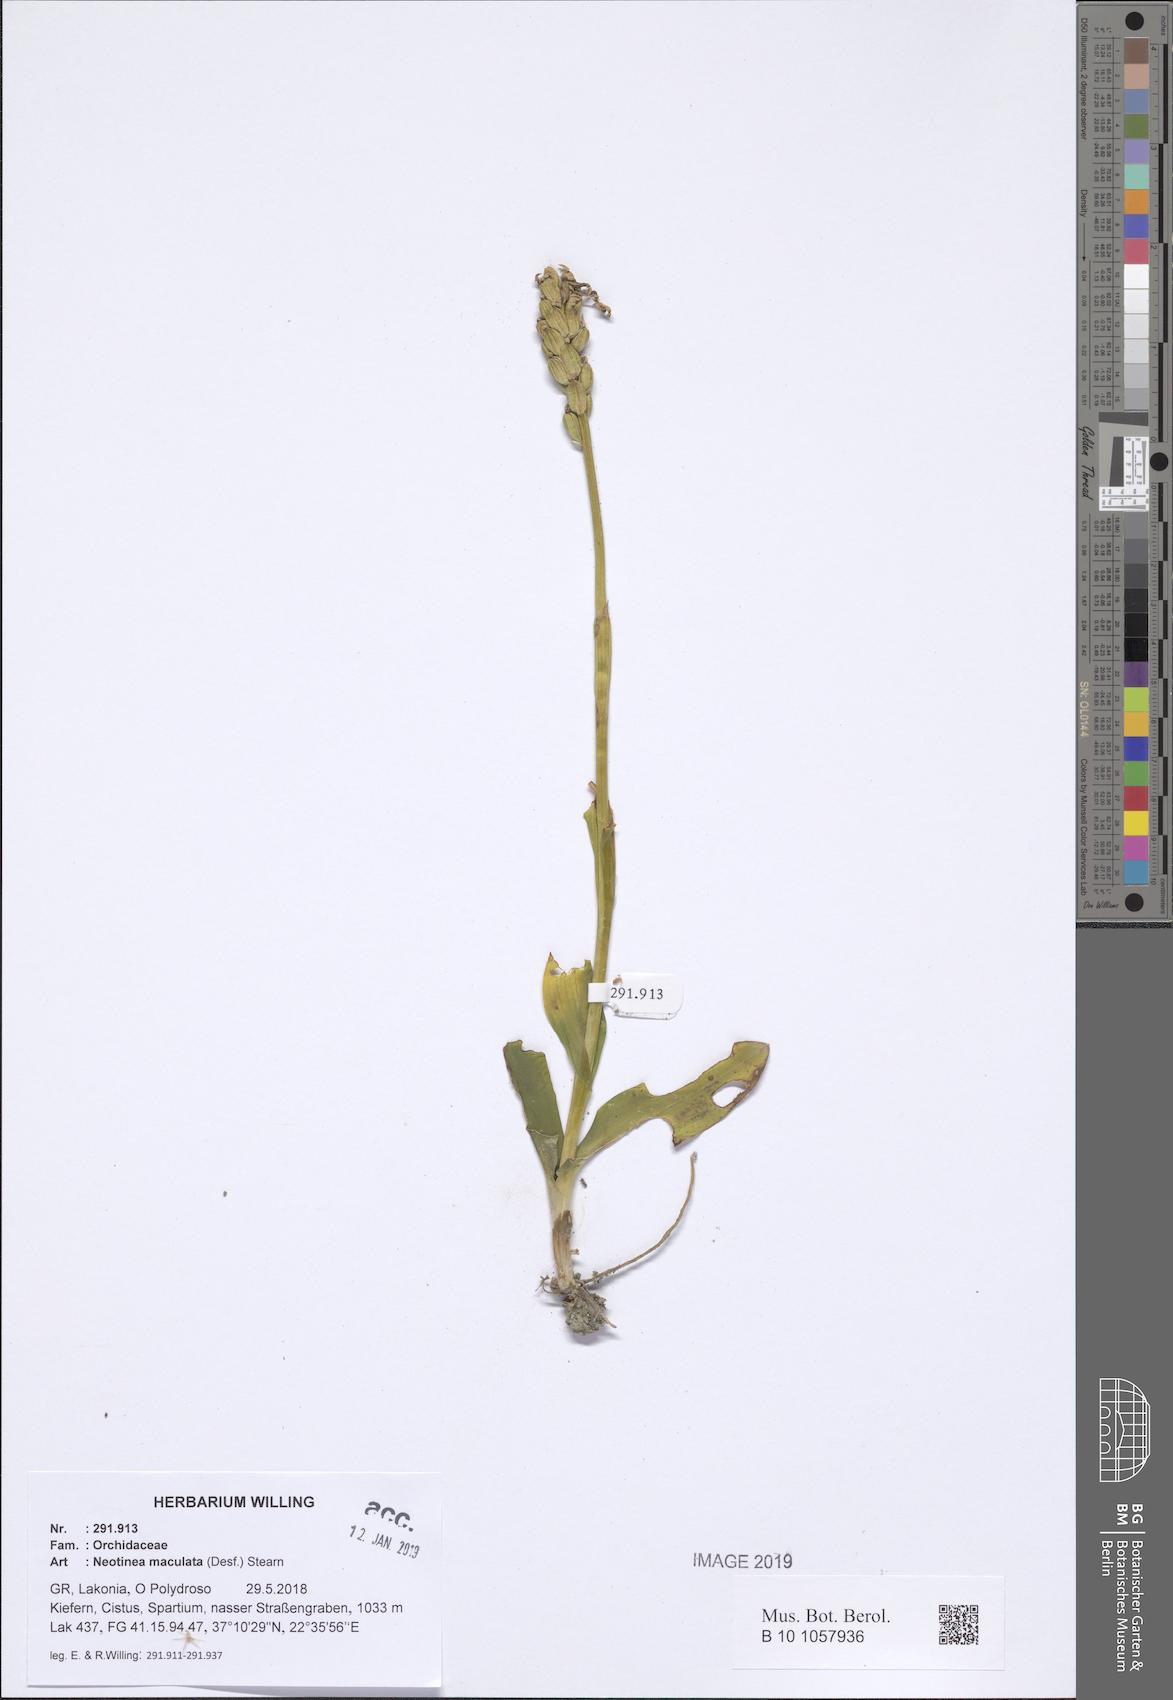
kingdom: Plantae
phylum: Tracheophyta
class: Liliopsida
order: Asparagales
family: Orchidaceae
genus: Neotinea
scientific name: Neotinea maculata
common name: Dense-flowered orchid
